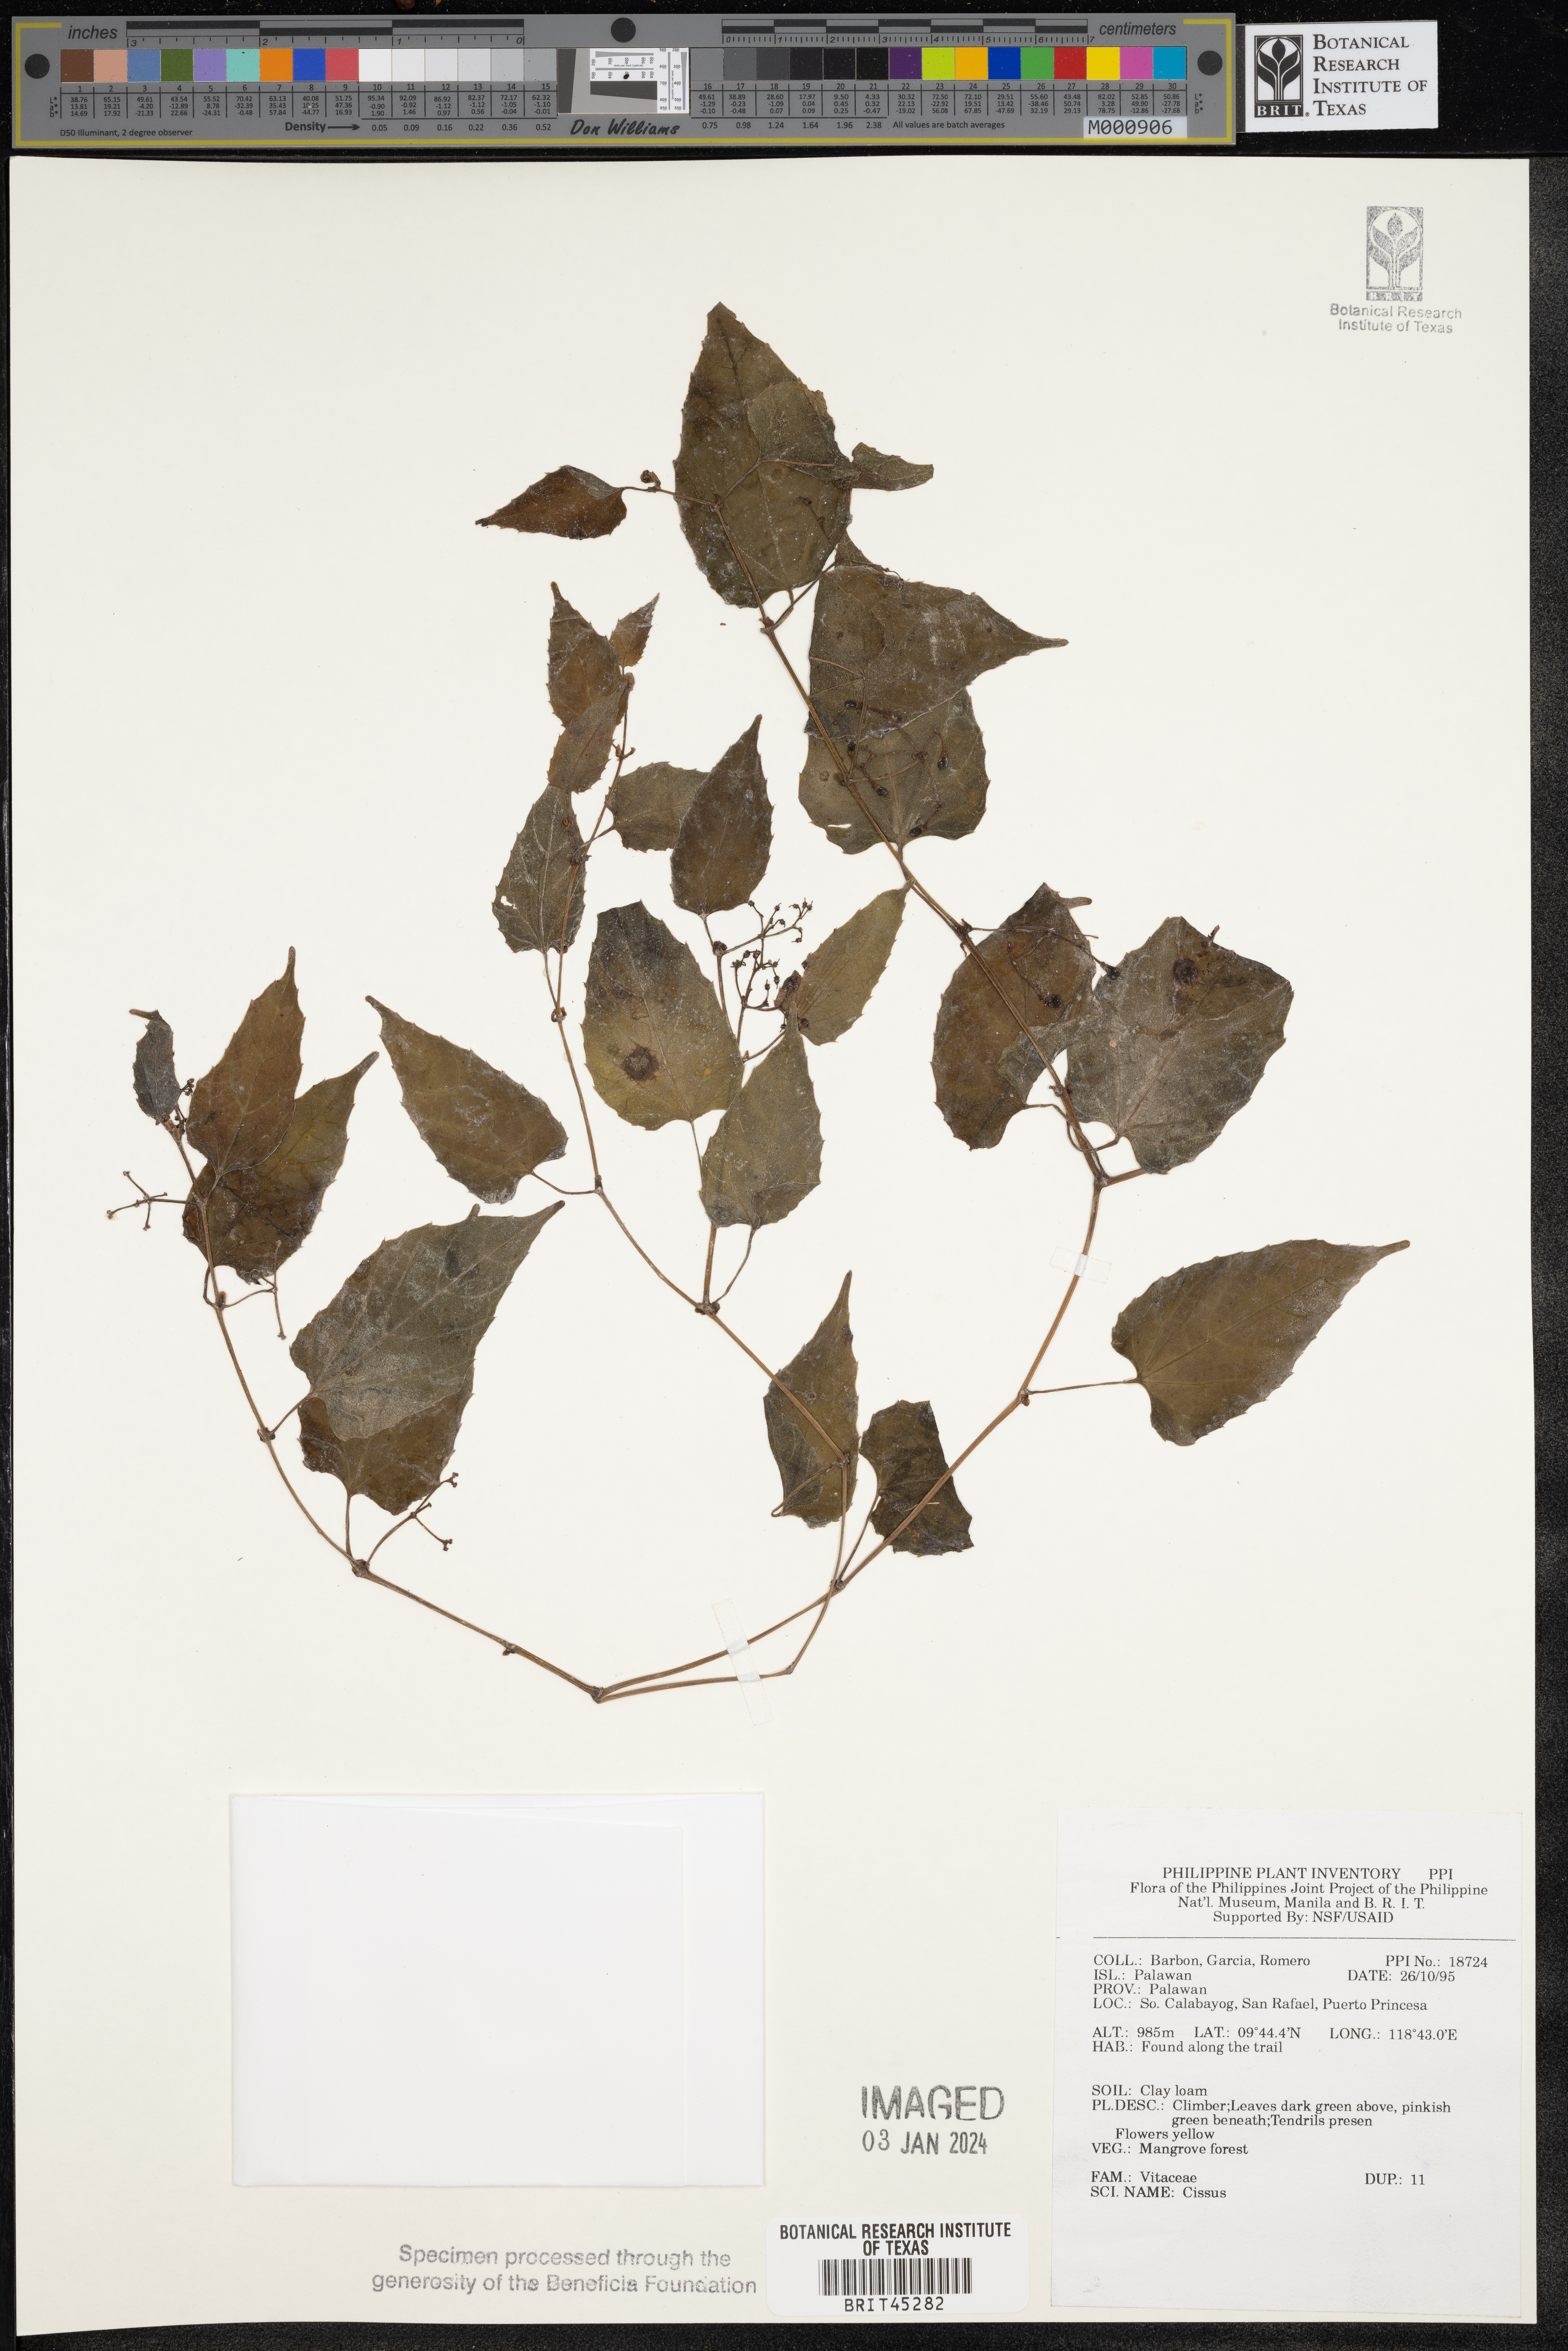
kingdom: Plantae
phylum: Tracheophyta
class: Magnoliopsida
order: Vitales
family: Vitaceae
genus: Cissus
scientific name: Cissus
